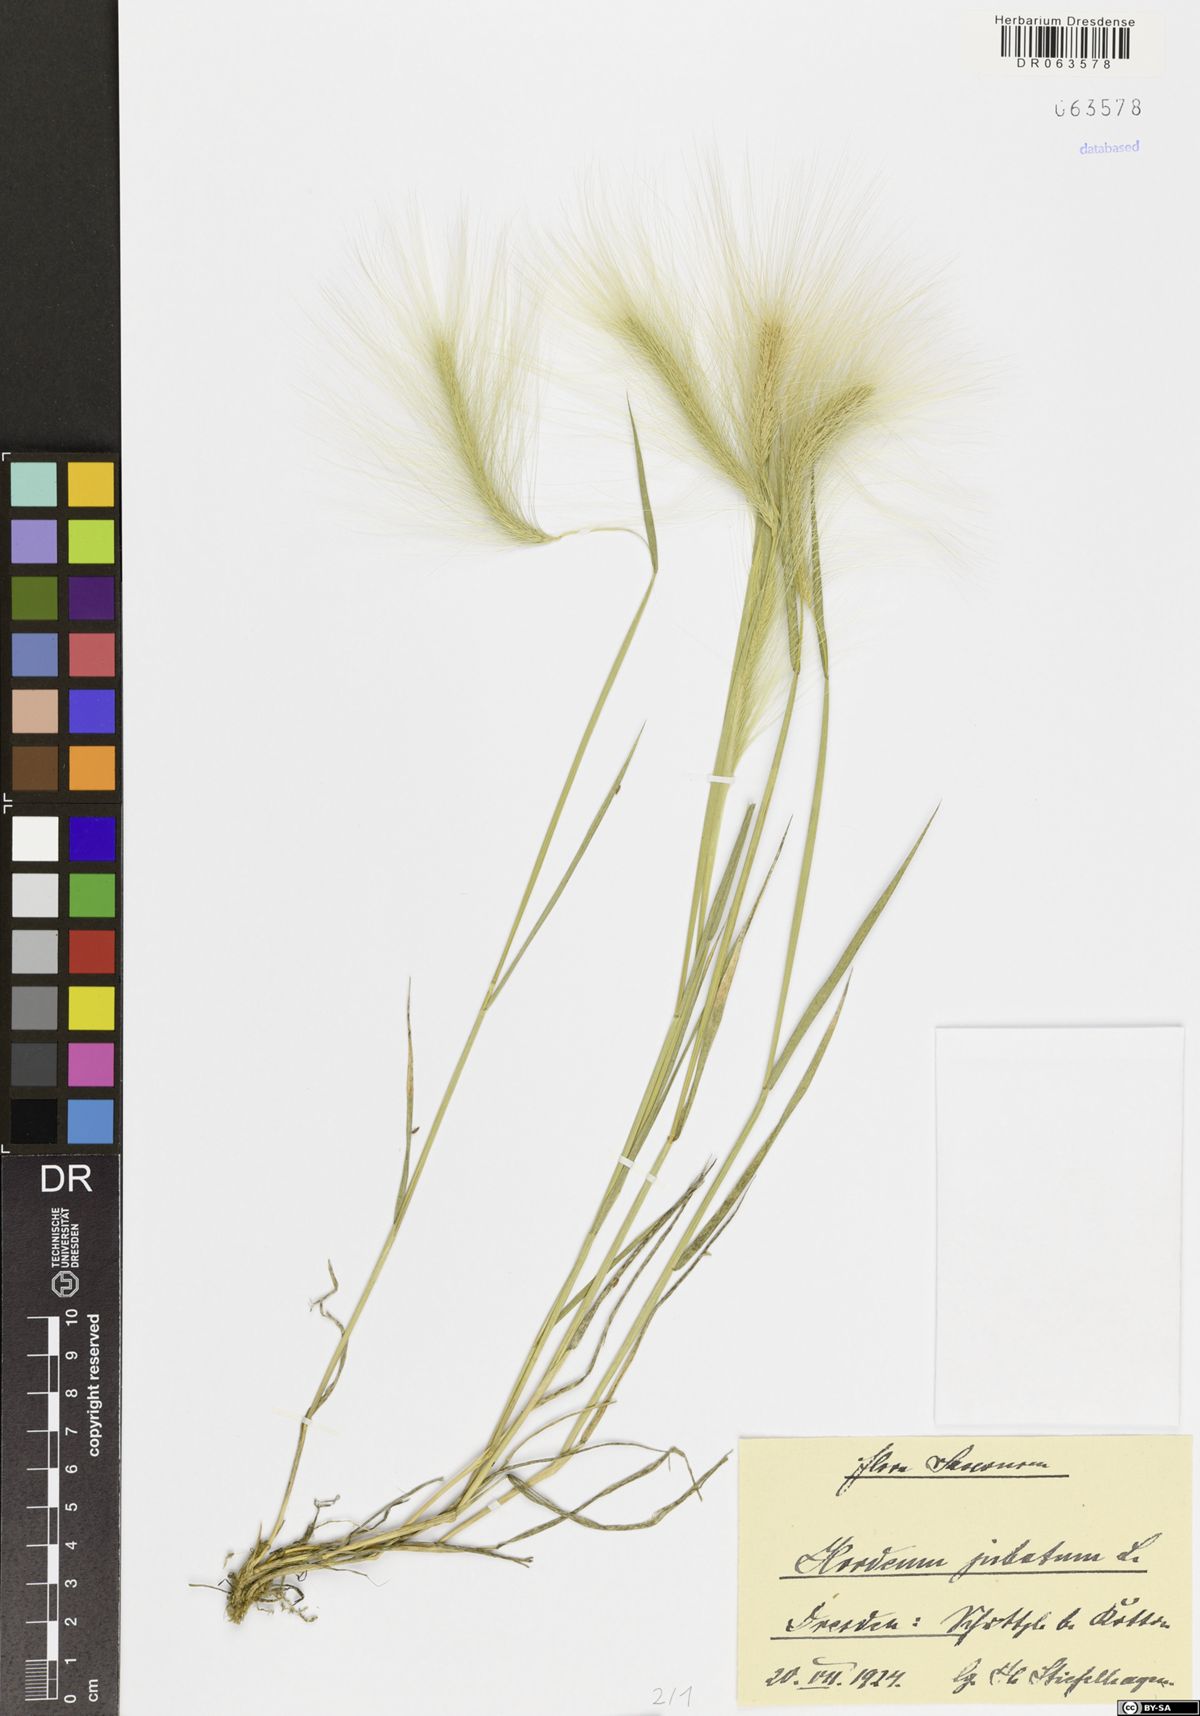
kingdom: Plantae
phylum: Tracheophyta
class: Liliopsida
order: Poales
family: Poaceae
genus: Hordeum
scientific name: Hordeum jubatum
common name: Foxtail barley
